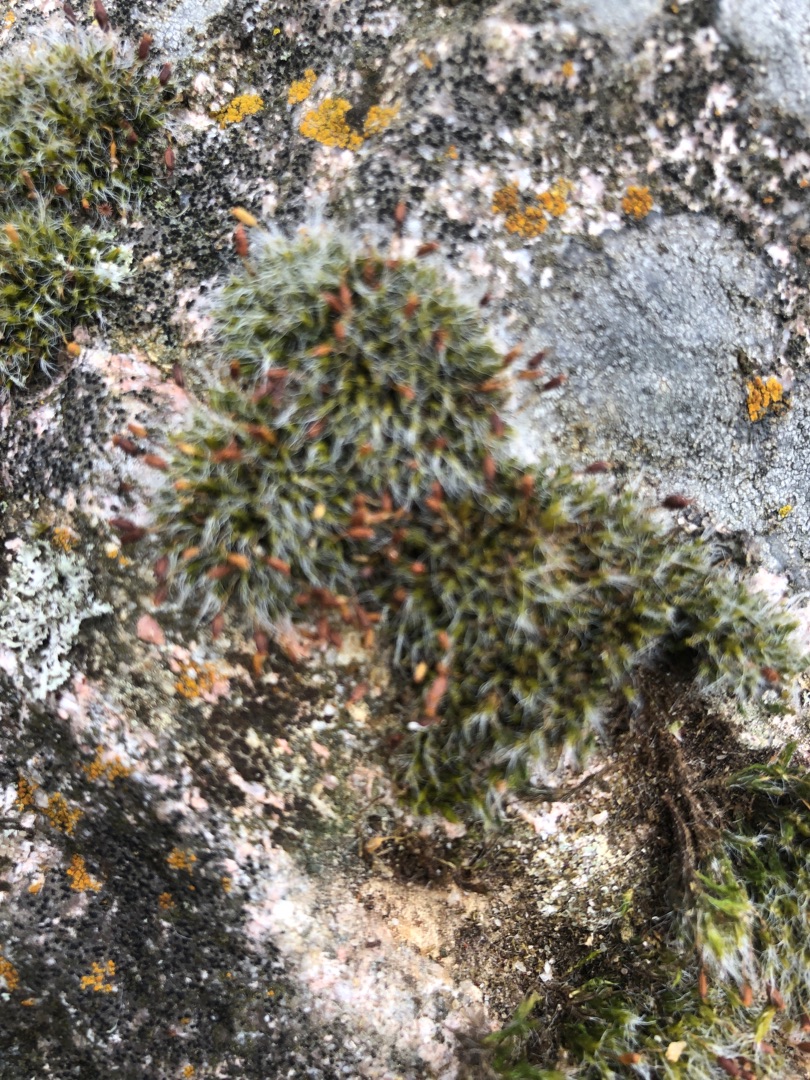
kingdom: Plantae
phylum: Bryophyta
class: Bryopsida
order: Grimmiales
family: Grimmiaceae
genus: Grimmia
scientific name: Grimmia pulvinata
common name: Pude-gråmos
